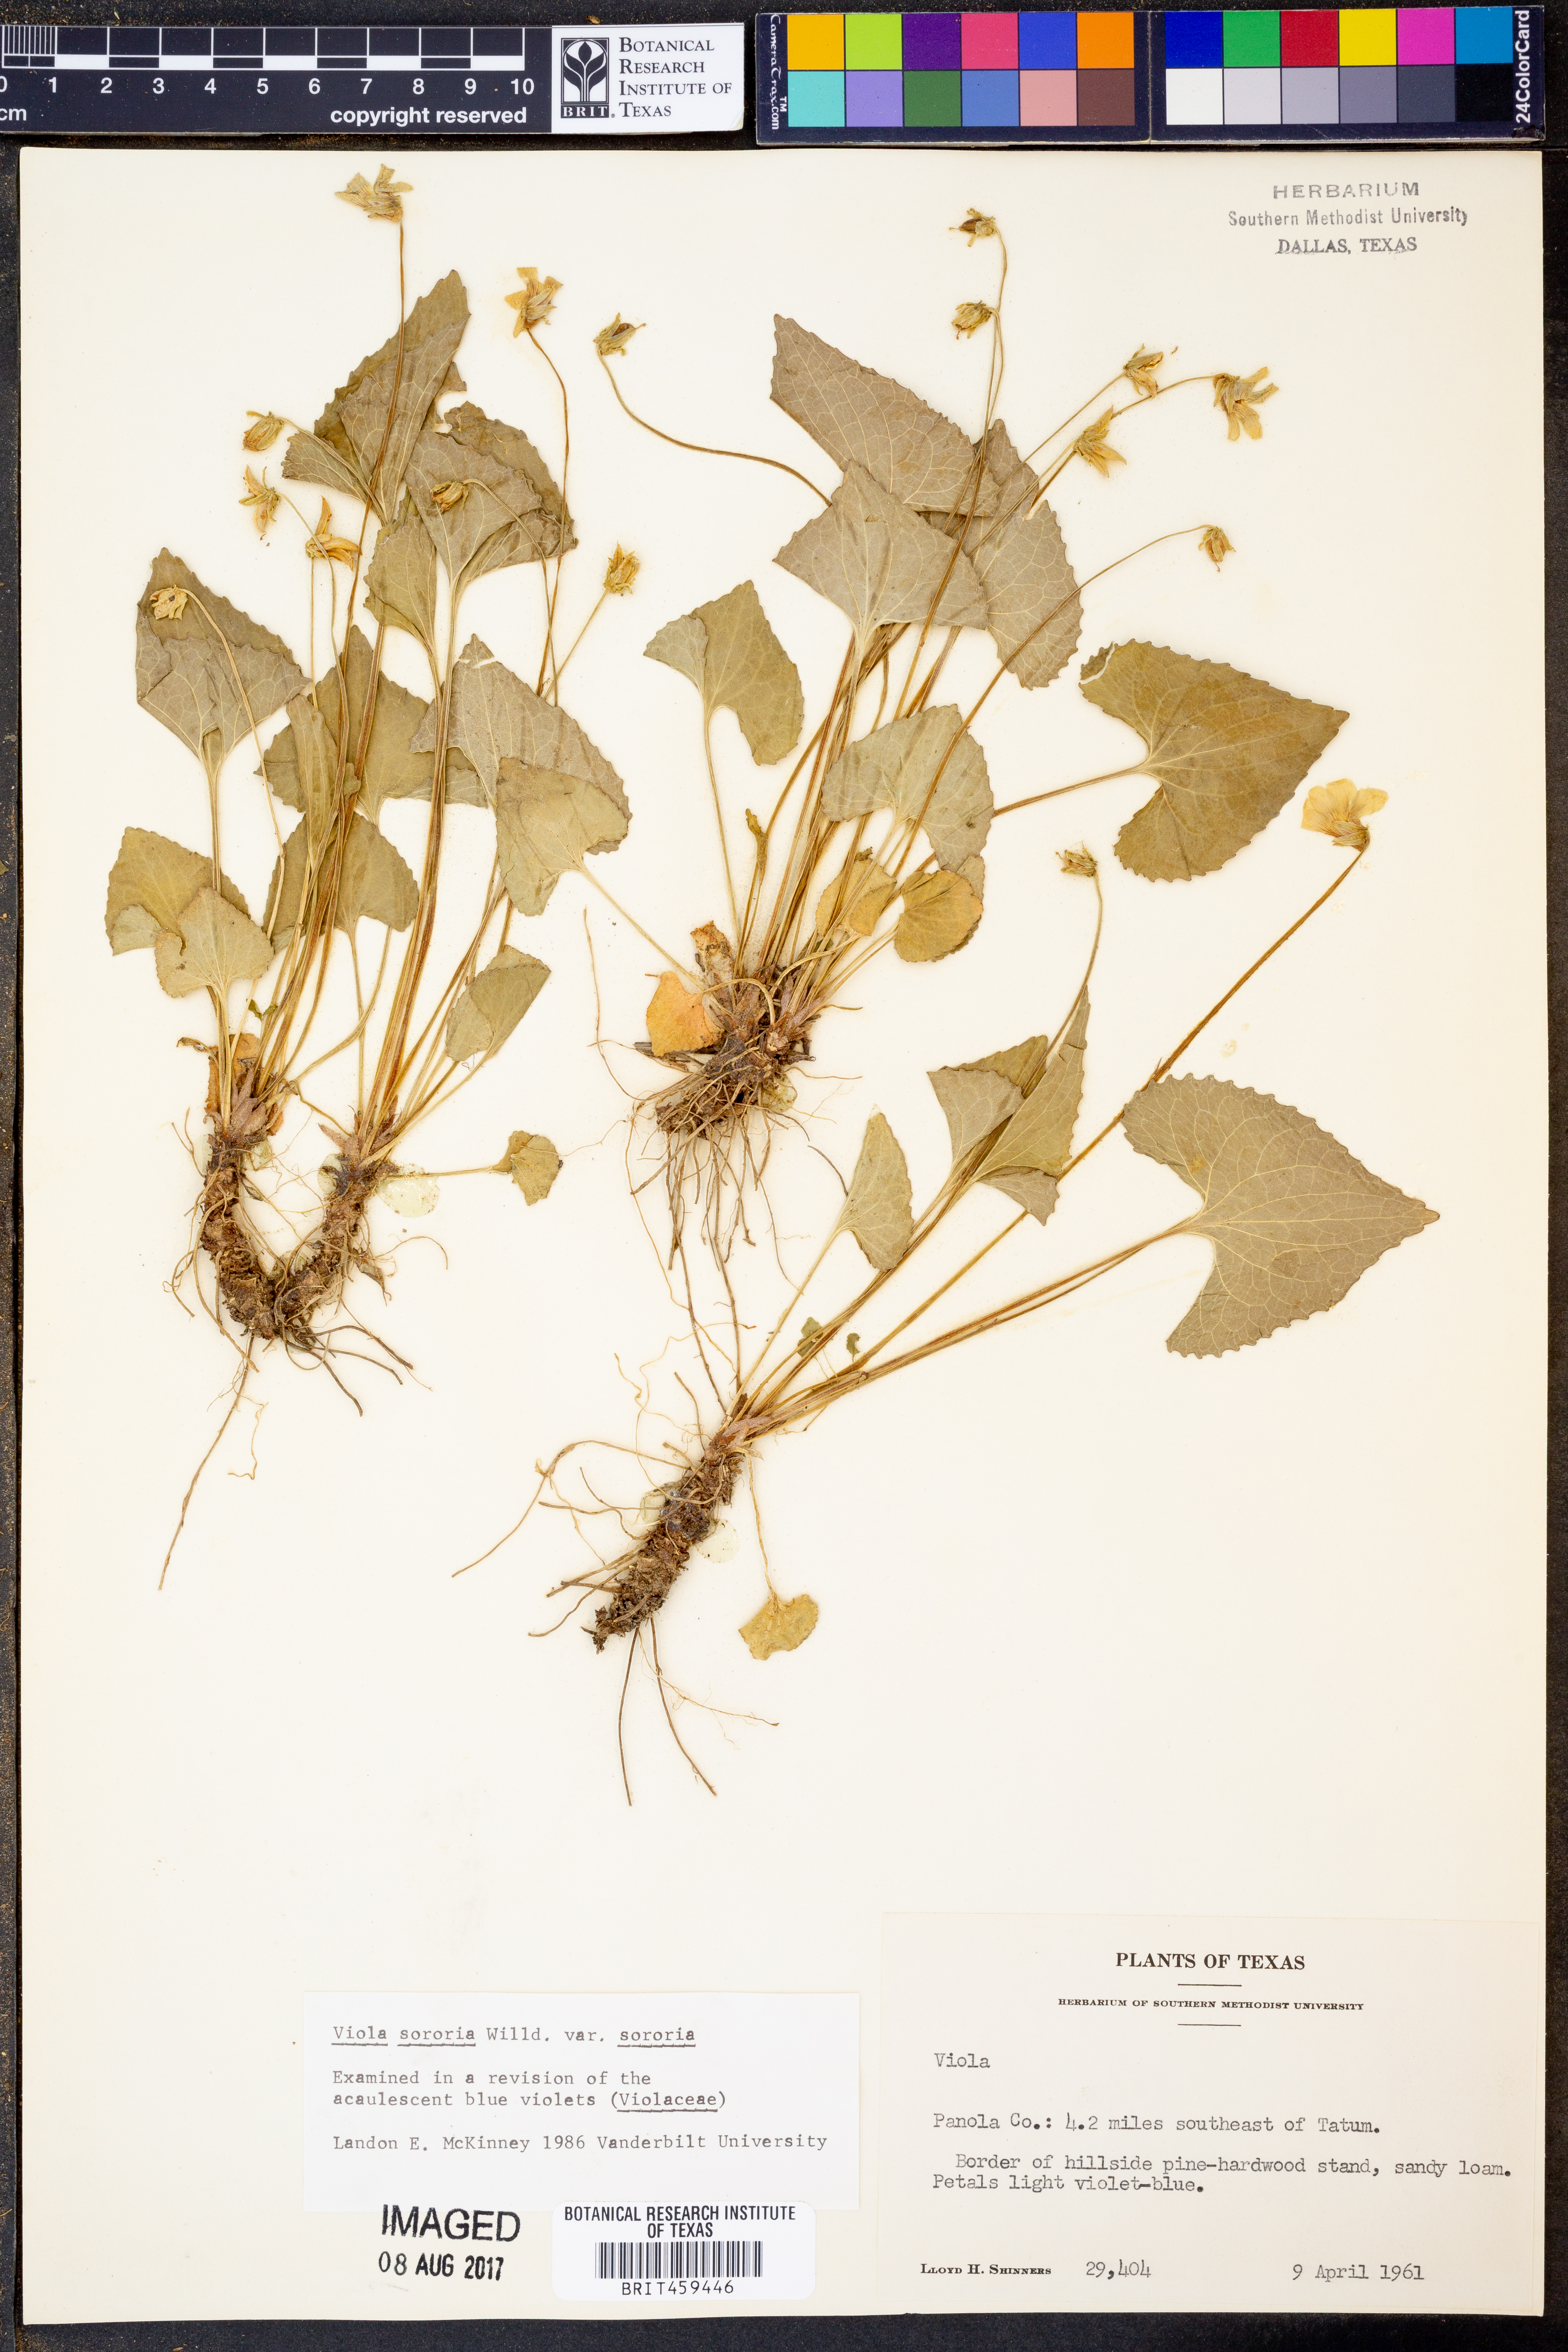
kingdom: Plantae
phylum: Tracheophyta
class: Magnoliopsida
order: Malpighiales
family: Violaceae
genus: Viola
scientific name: Viola sororia
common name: Dooryard violet
